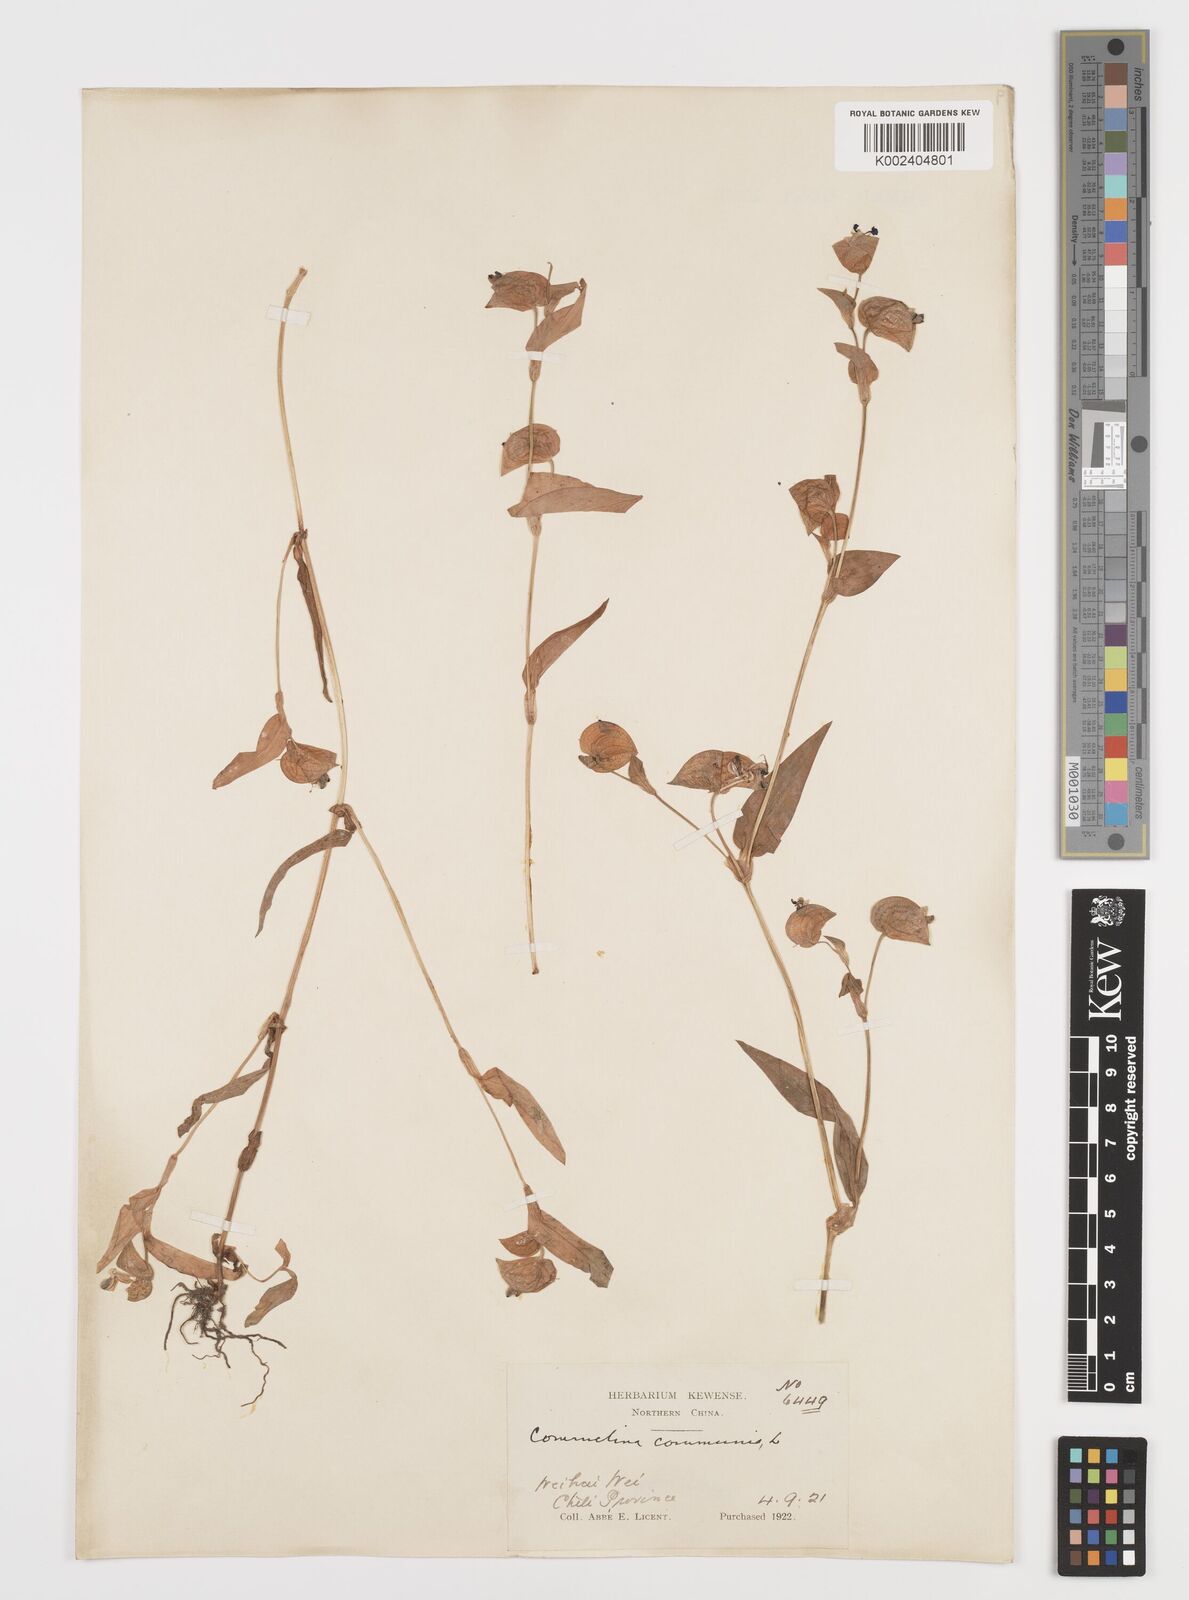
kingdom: Plantae
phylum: Tracheophyta
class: Liliopsida
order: Commelinales
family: Commelinaceae
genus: Commelina
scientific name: Commelina communis
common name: Asiatic dayflower
